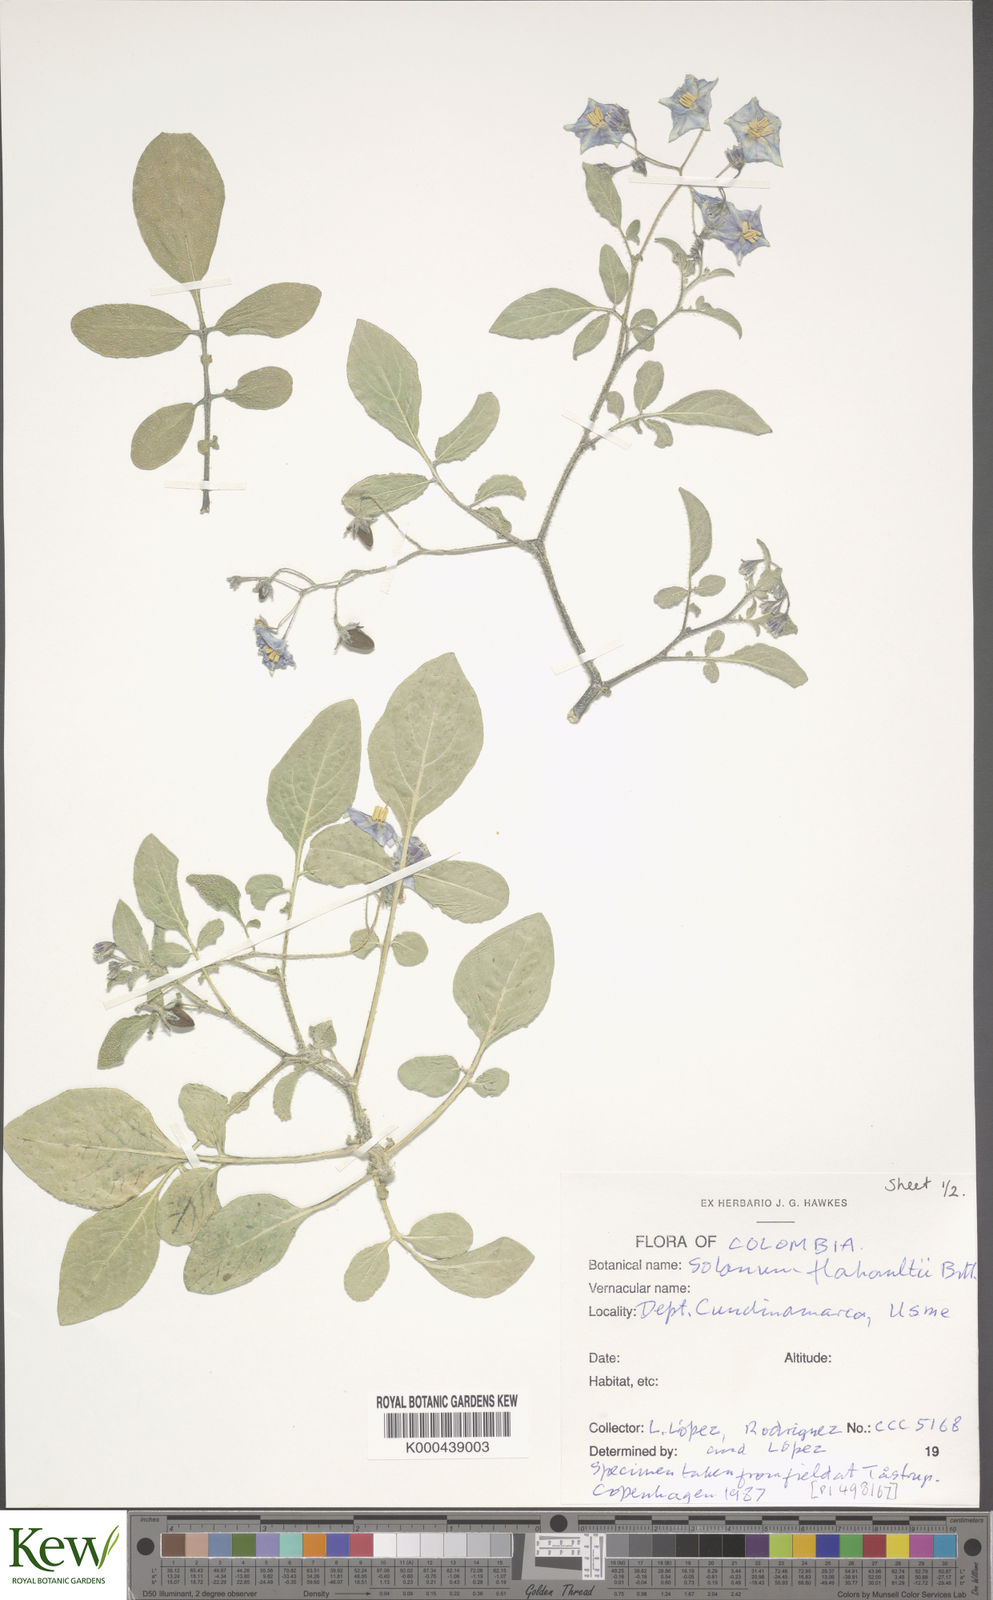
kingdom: Plantae
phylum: Tracheophyta
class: Magnoliopsida
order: Solanales
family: Solanaceae
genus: Solanum
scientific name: Solanum flahaultii
